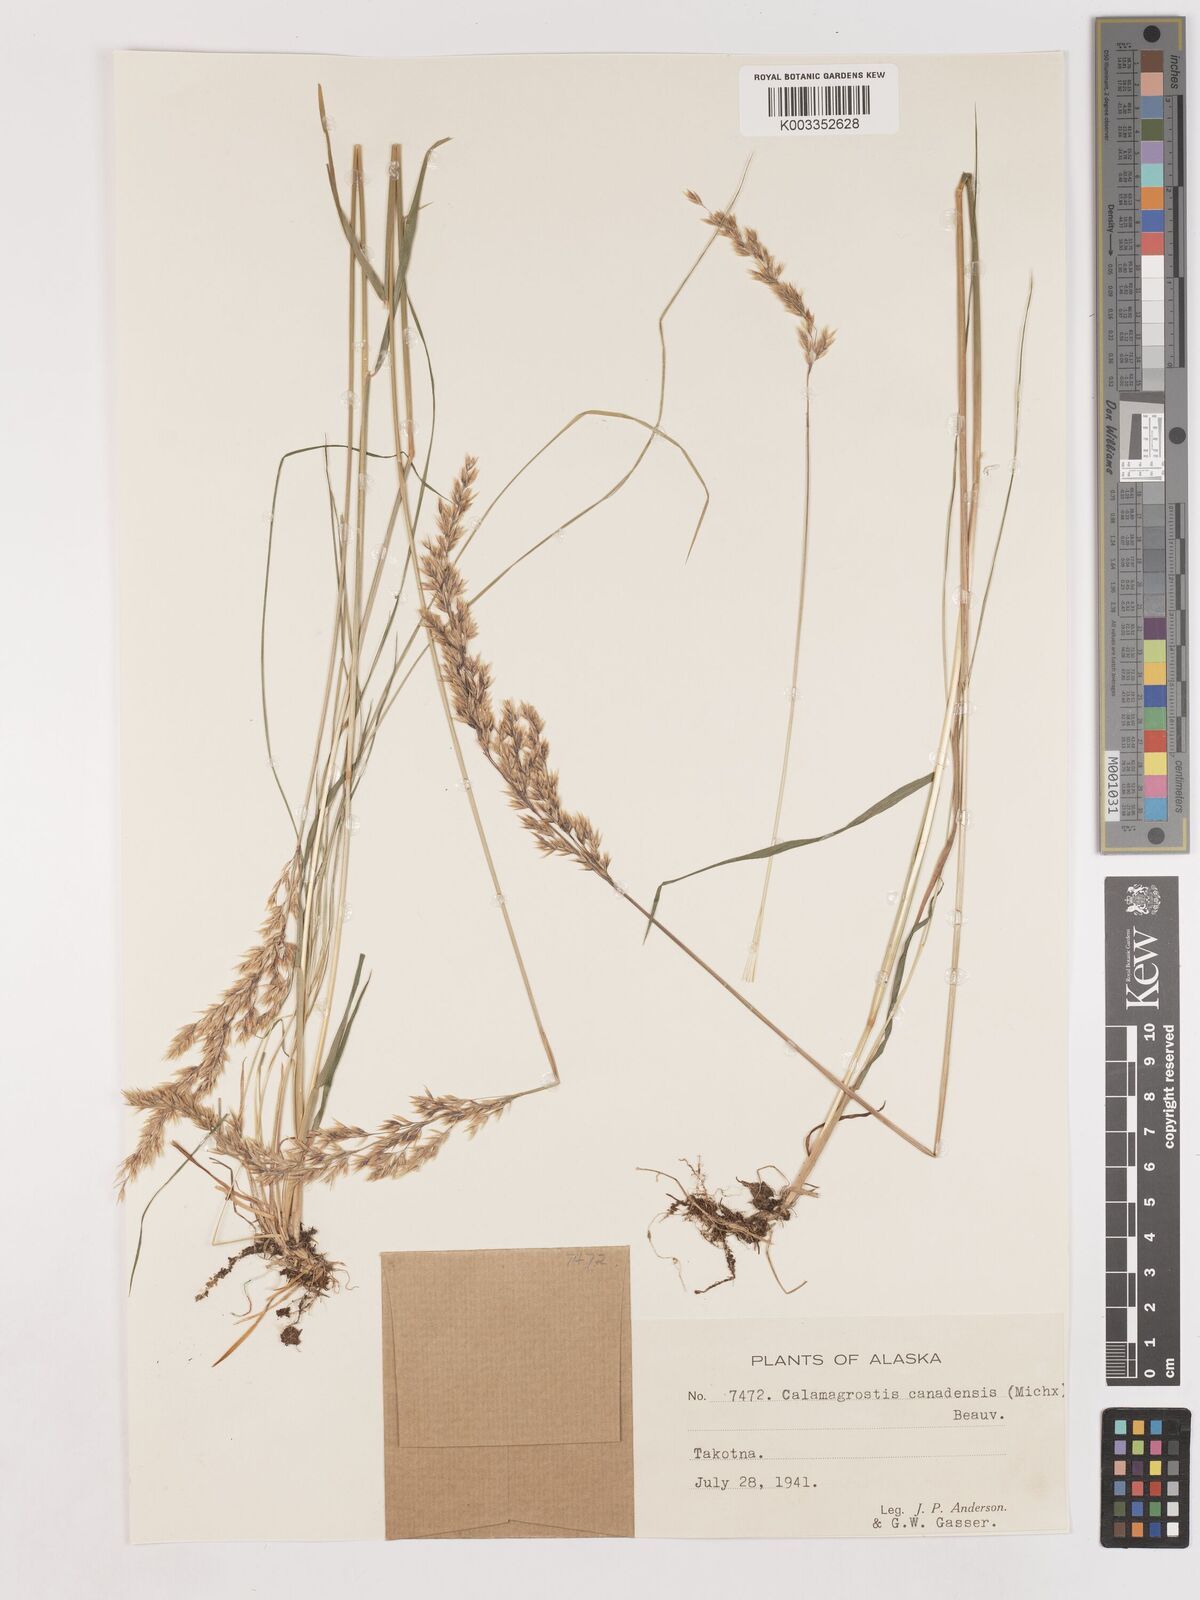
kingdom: Plantae
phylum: Tracheophyta
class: Liliopsida
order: Poales
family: Poaceae
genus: Calamagrostis
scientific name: Calamagrostis canadensis
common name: Canada bluejoint
